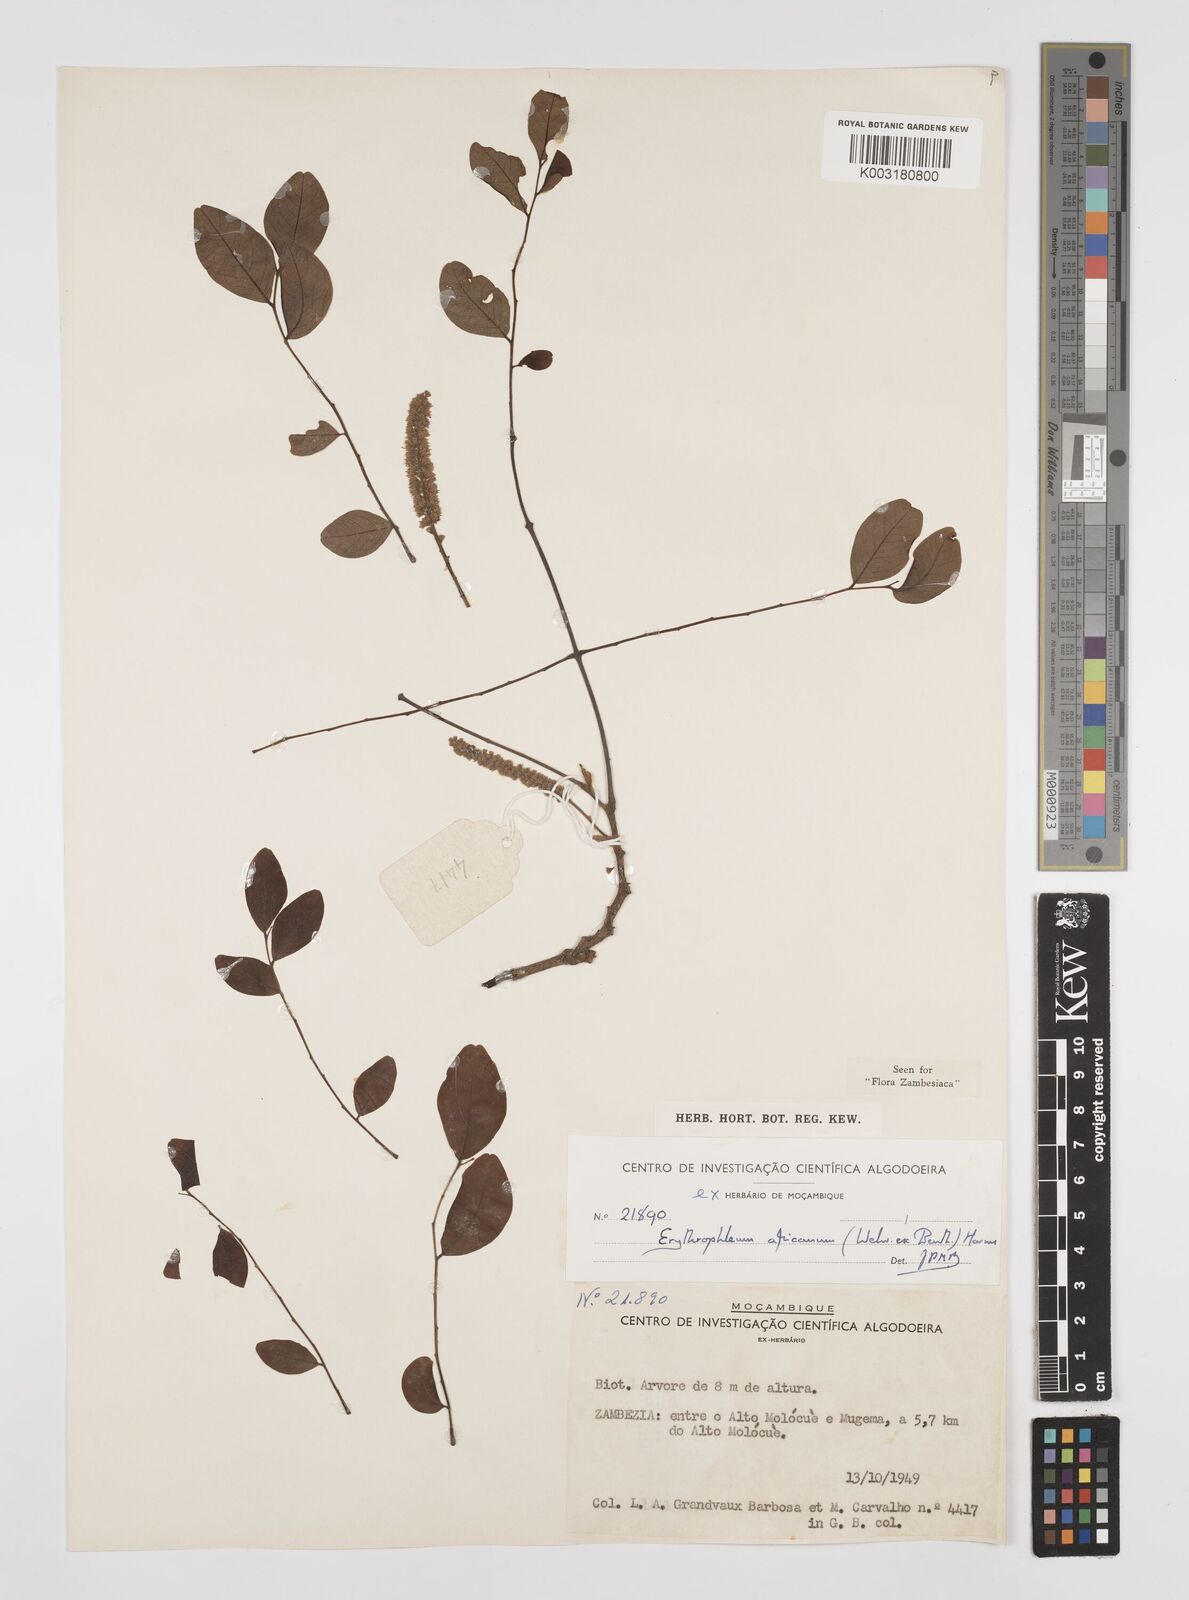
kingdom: Plantae
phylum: Tracheophyta
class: Magnoliopsida
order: Fabales
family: Fabaceae
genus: Peltophorum
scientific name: Peltophorum africanum
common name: African black wattle
